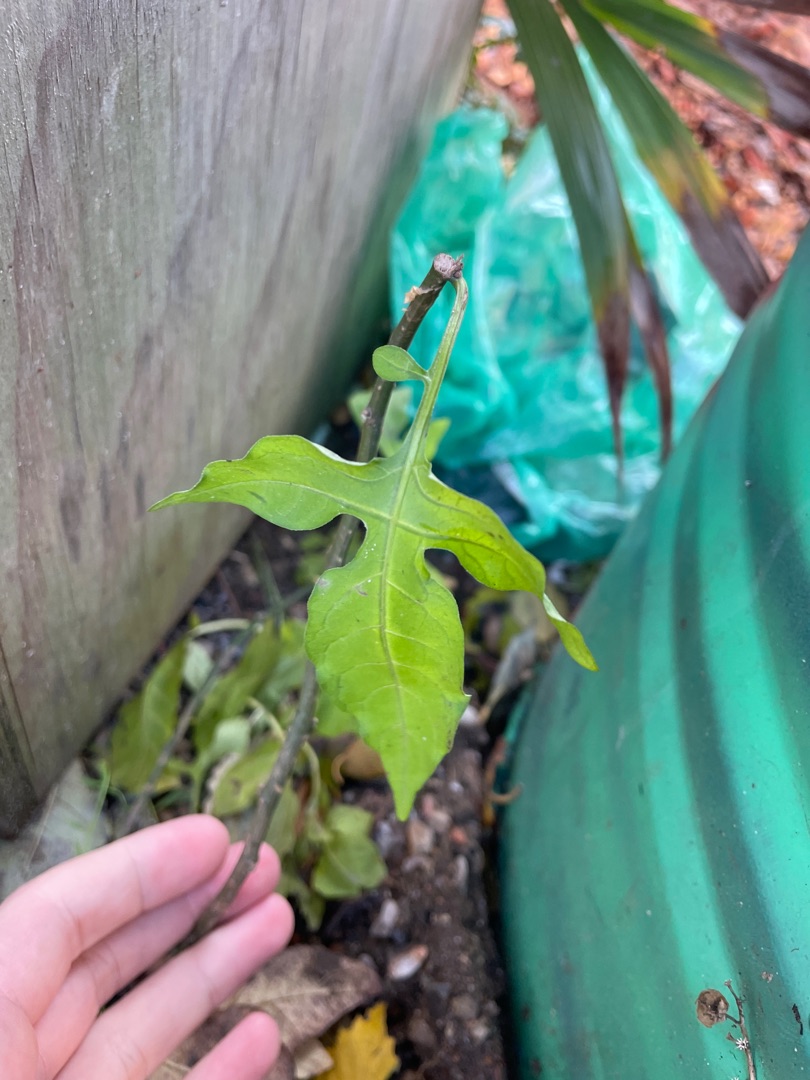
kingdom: Plantae
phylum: Tracheophyta
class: Magnoliopsida
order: Solanales
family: Solanaceae
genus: Solanum
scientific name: Solanum dulcamara
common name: Bittersød natskygge
